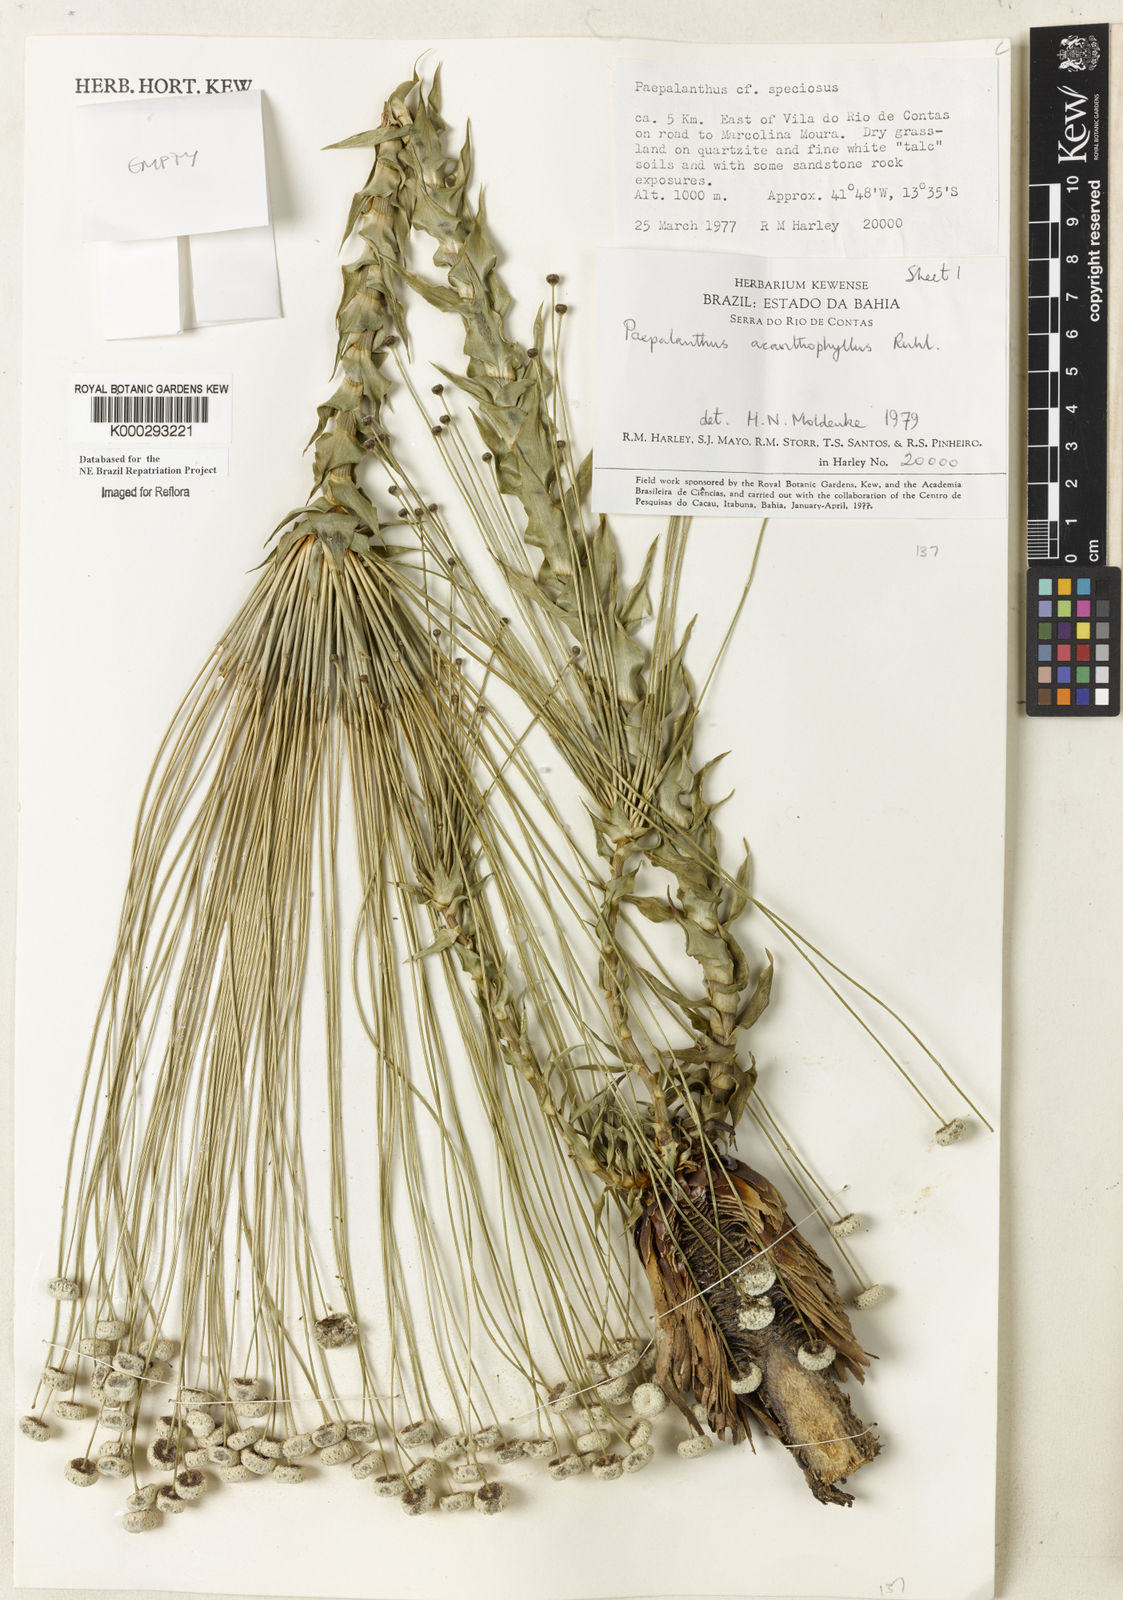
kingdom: Plantae
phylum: Tracheophyta
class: Liliopsida
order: Poales
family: Eriocaulaceae
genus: Paepalanthus
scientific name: Paepalanthus
